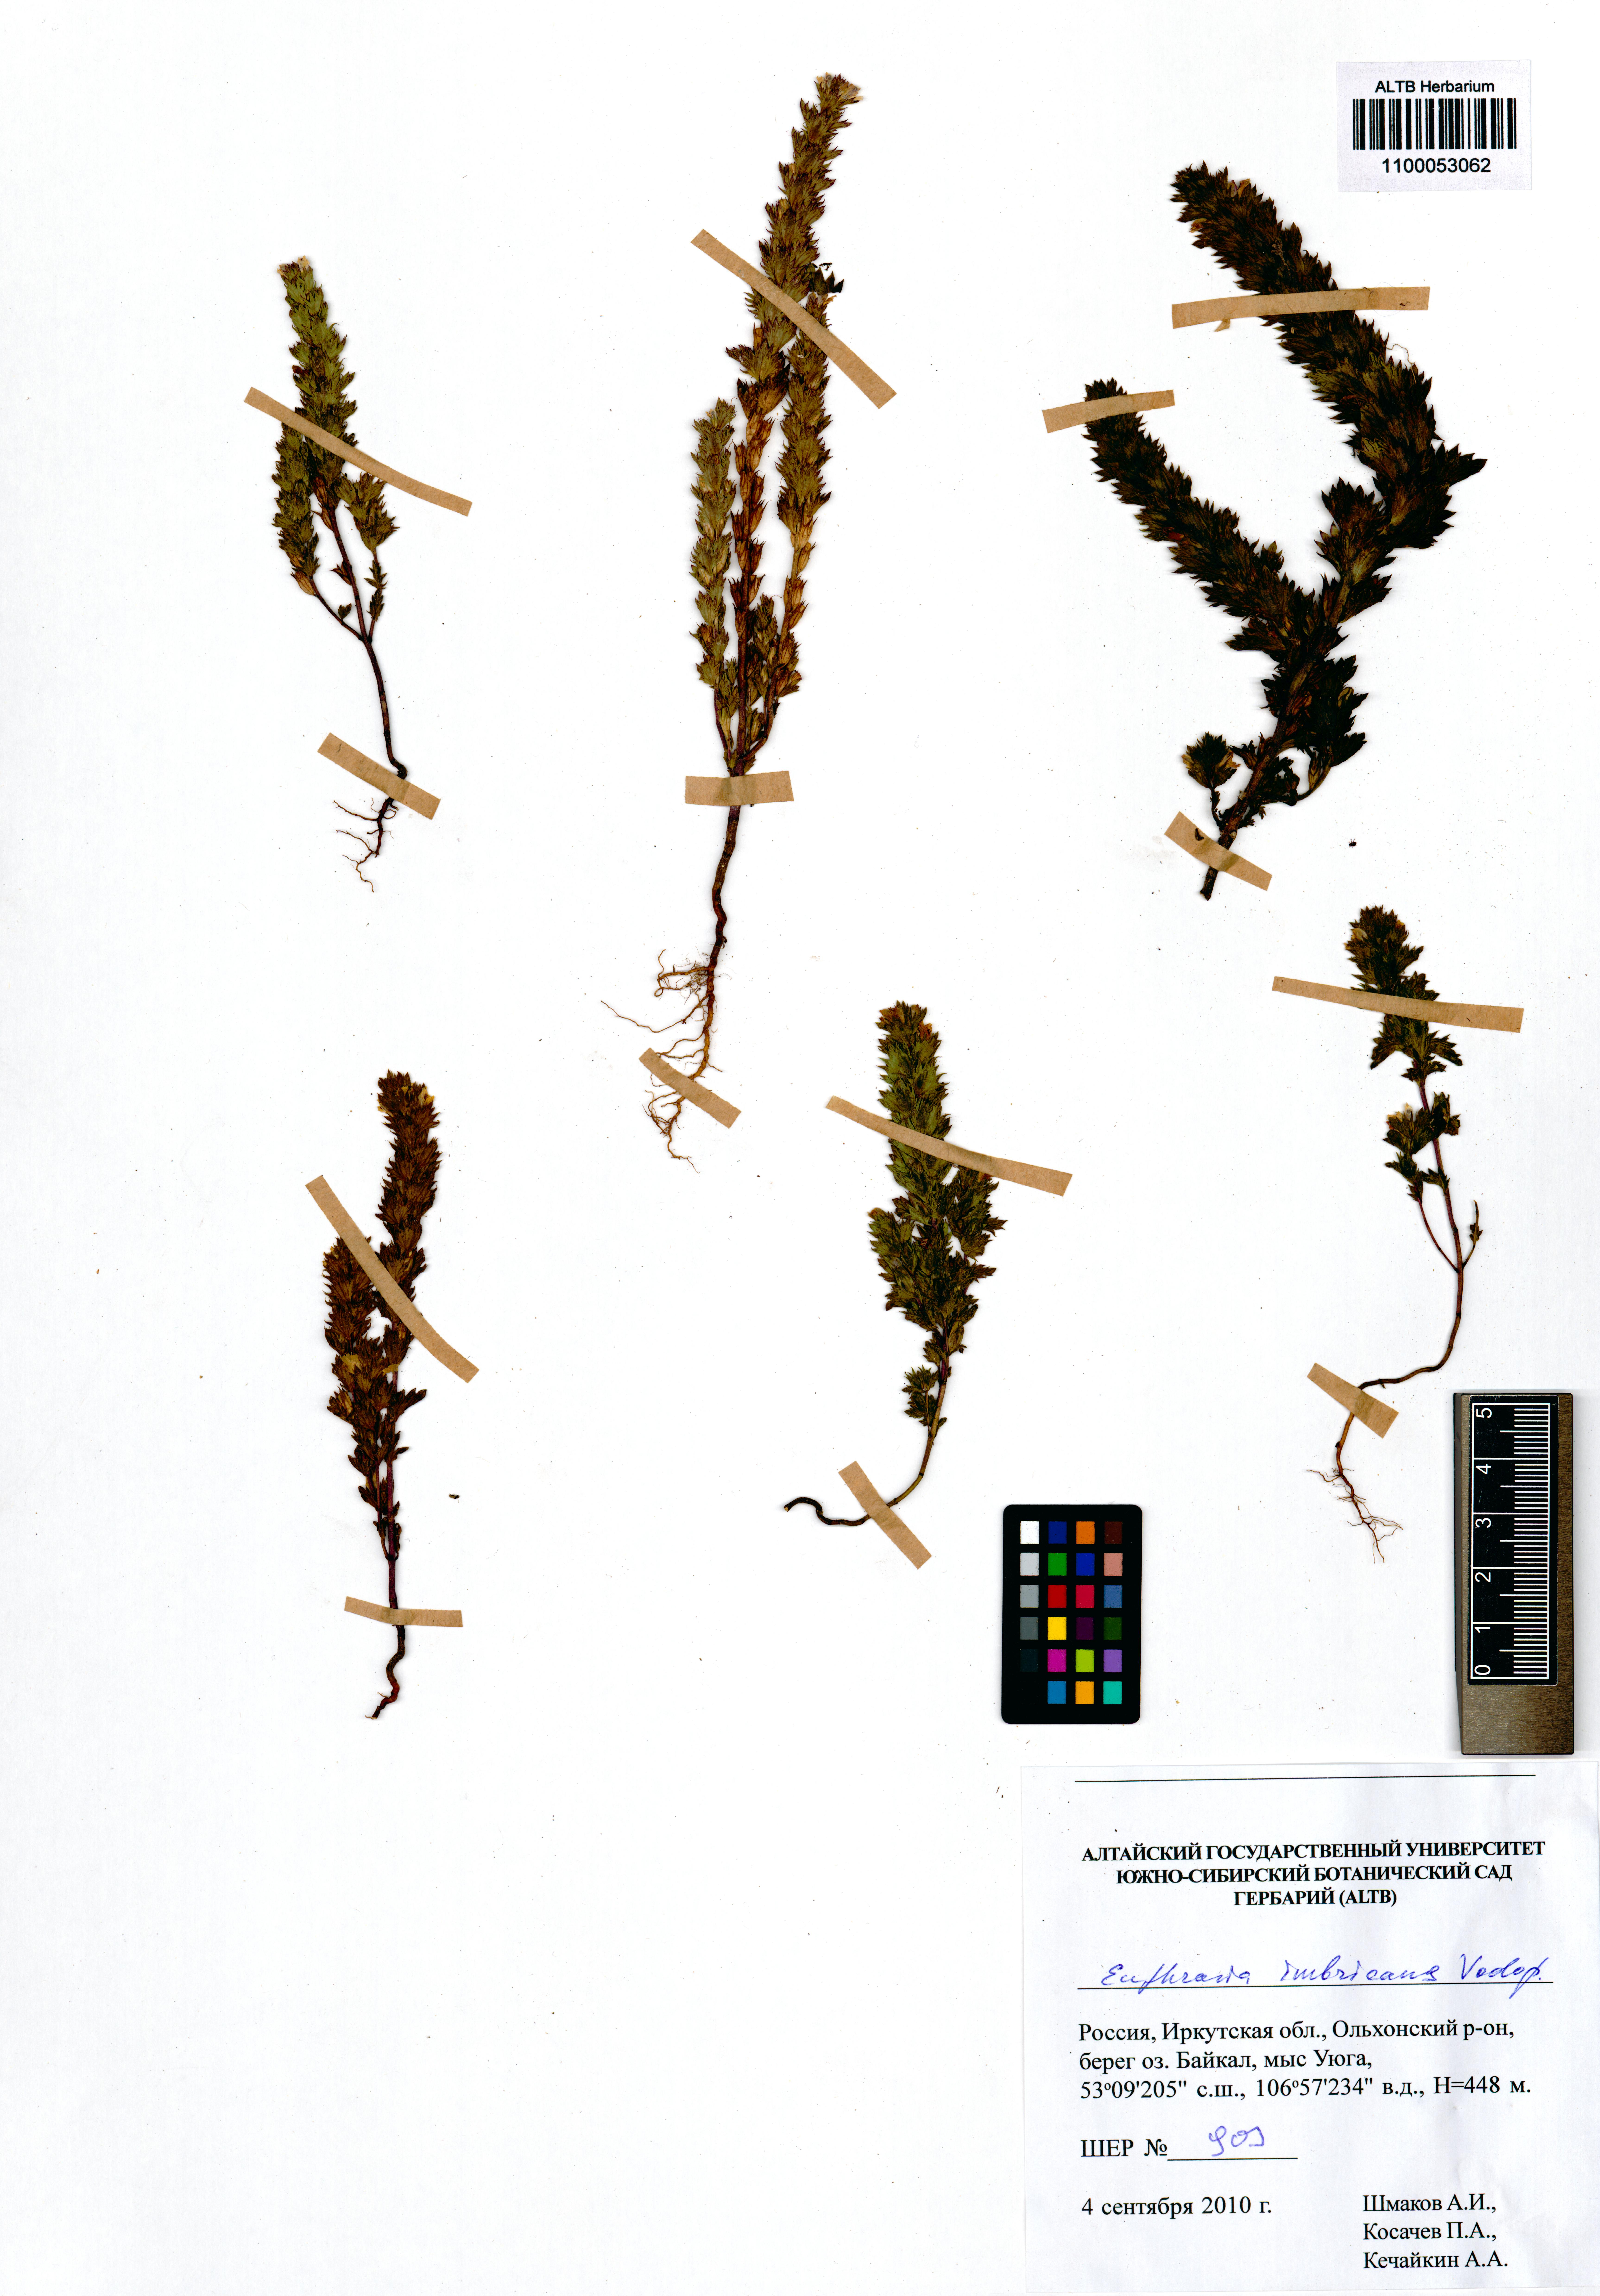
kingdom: Plantae
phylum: Tracheophyta
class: Magnoliopsida
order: Lamiales
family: Orobanchaceae
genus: Euphrasia
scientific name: Euphrasia pectinata
